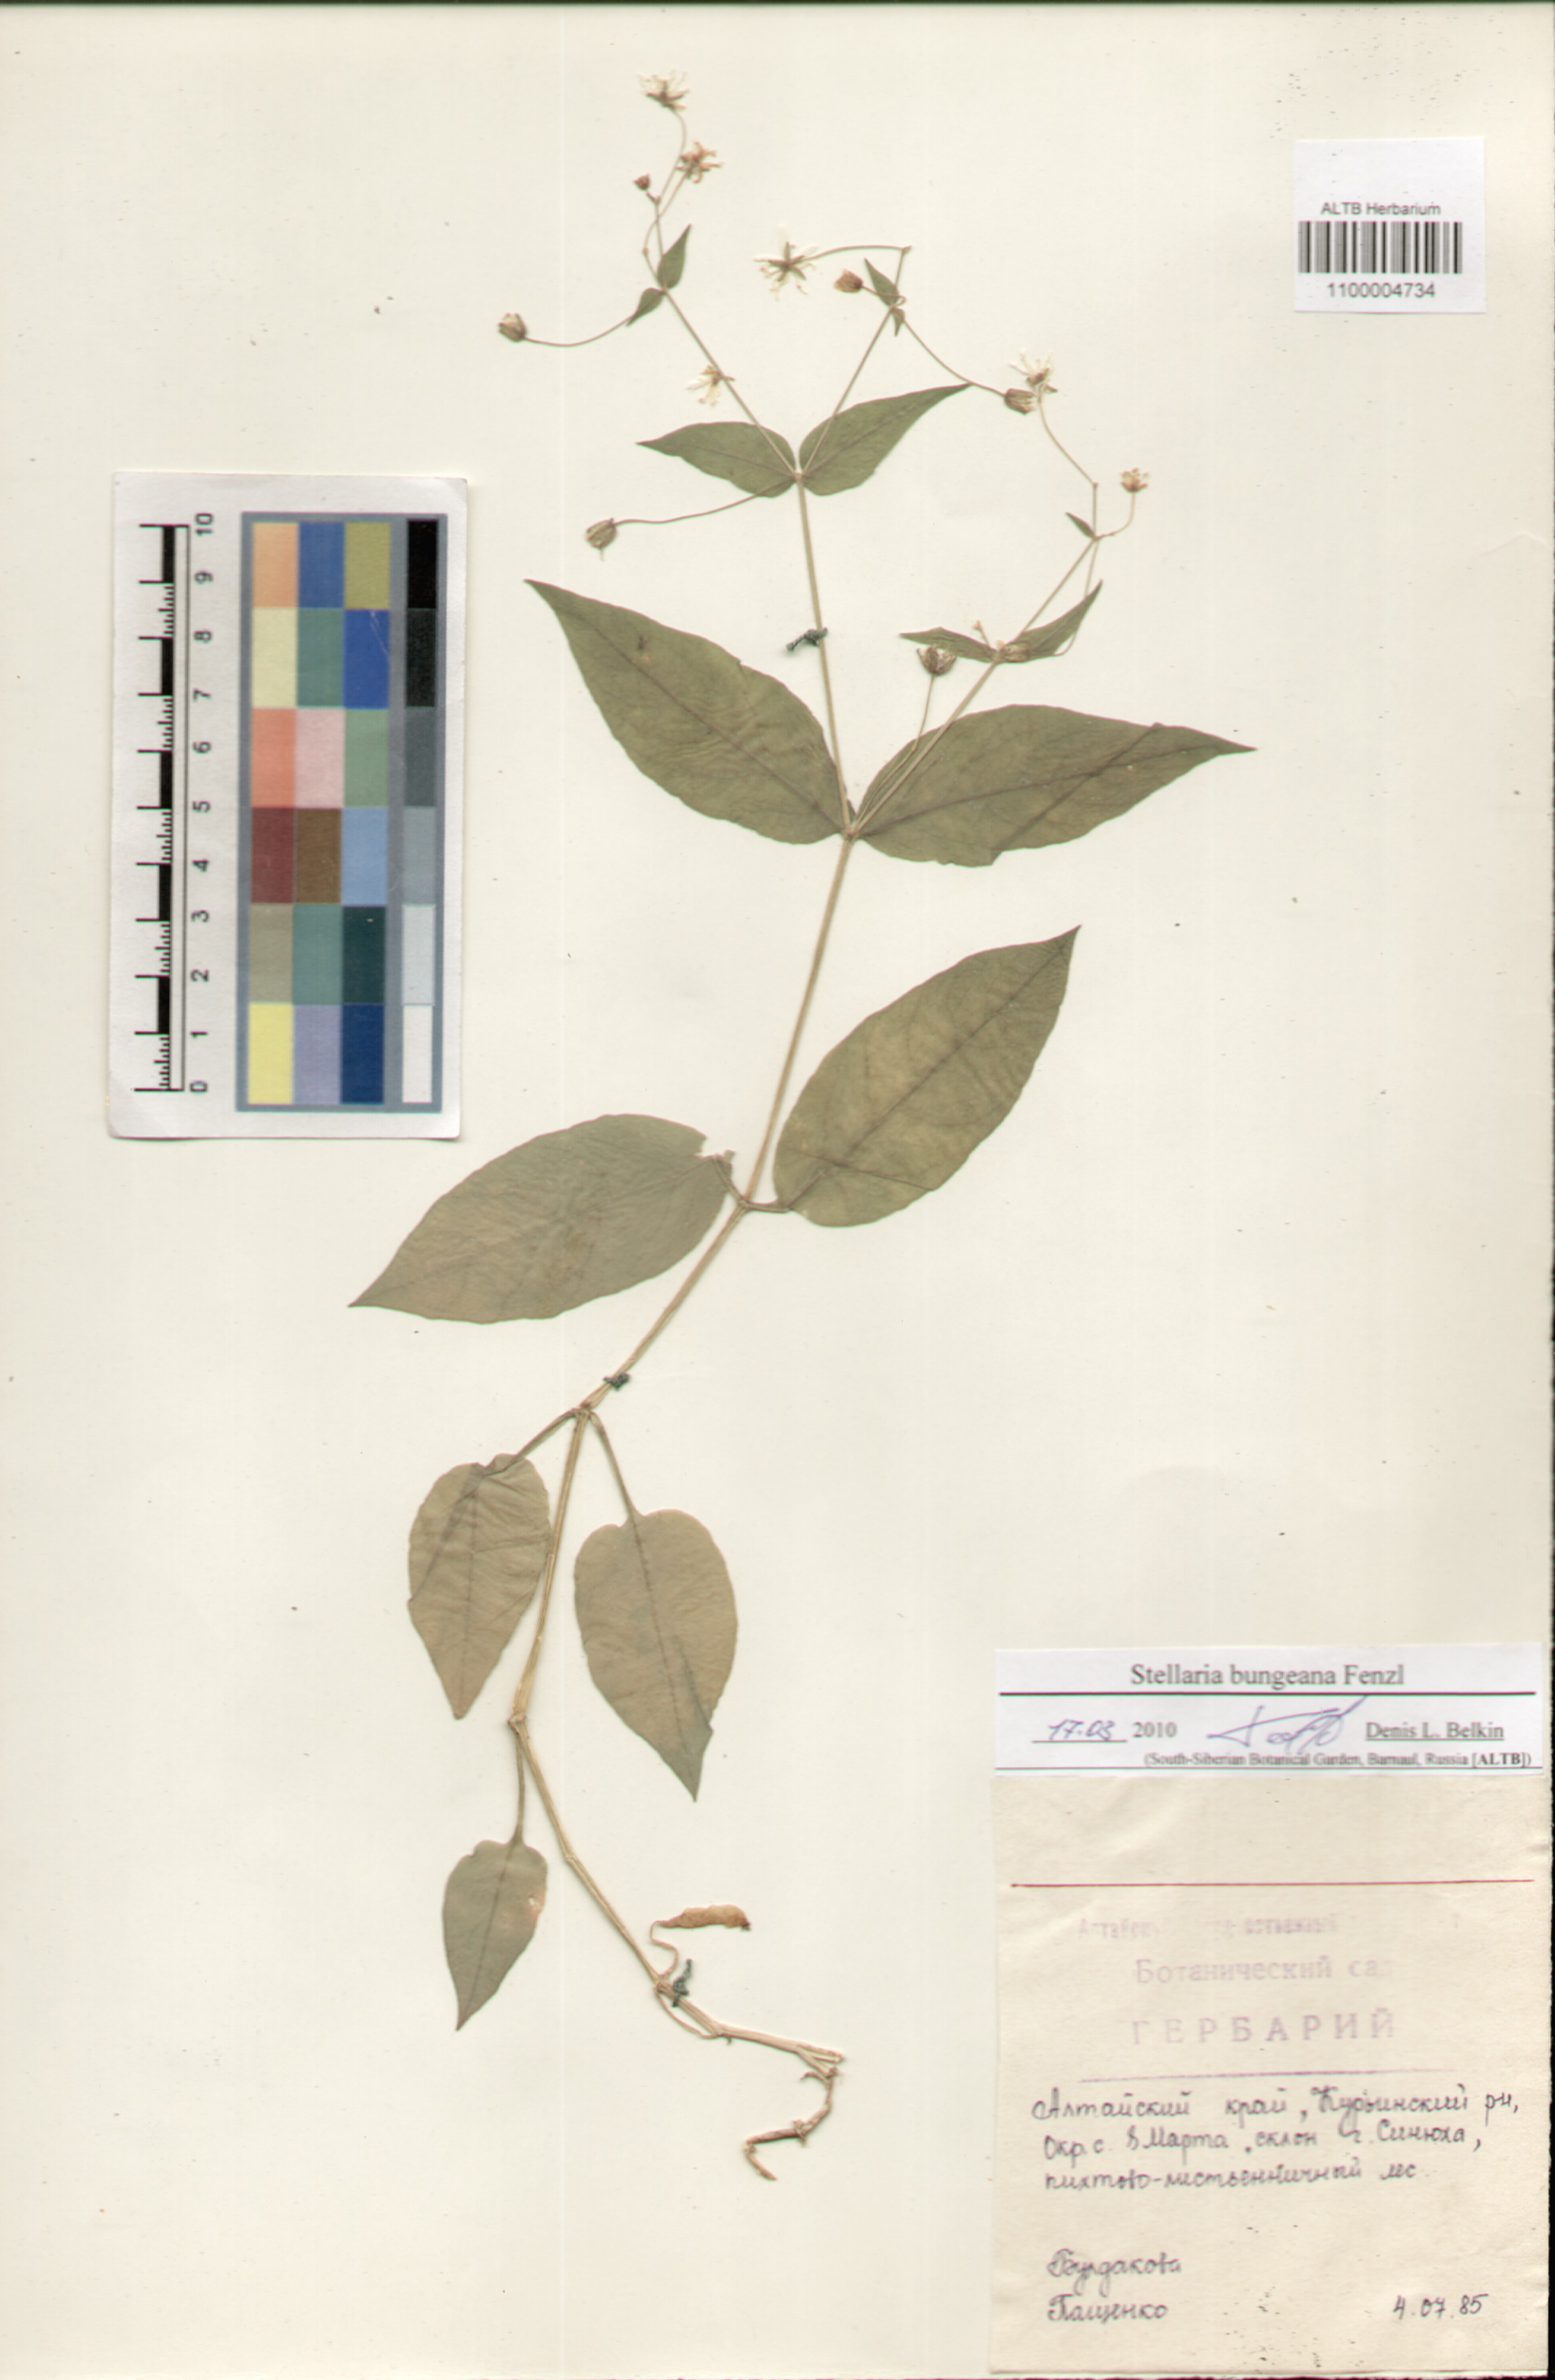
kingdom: Plantae
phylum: Tracheophyta
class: Magnoliopsida
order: Caryophyllales
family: Caryophyllaceae
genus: Stellaria
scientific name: Stellaria bungeana
